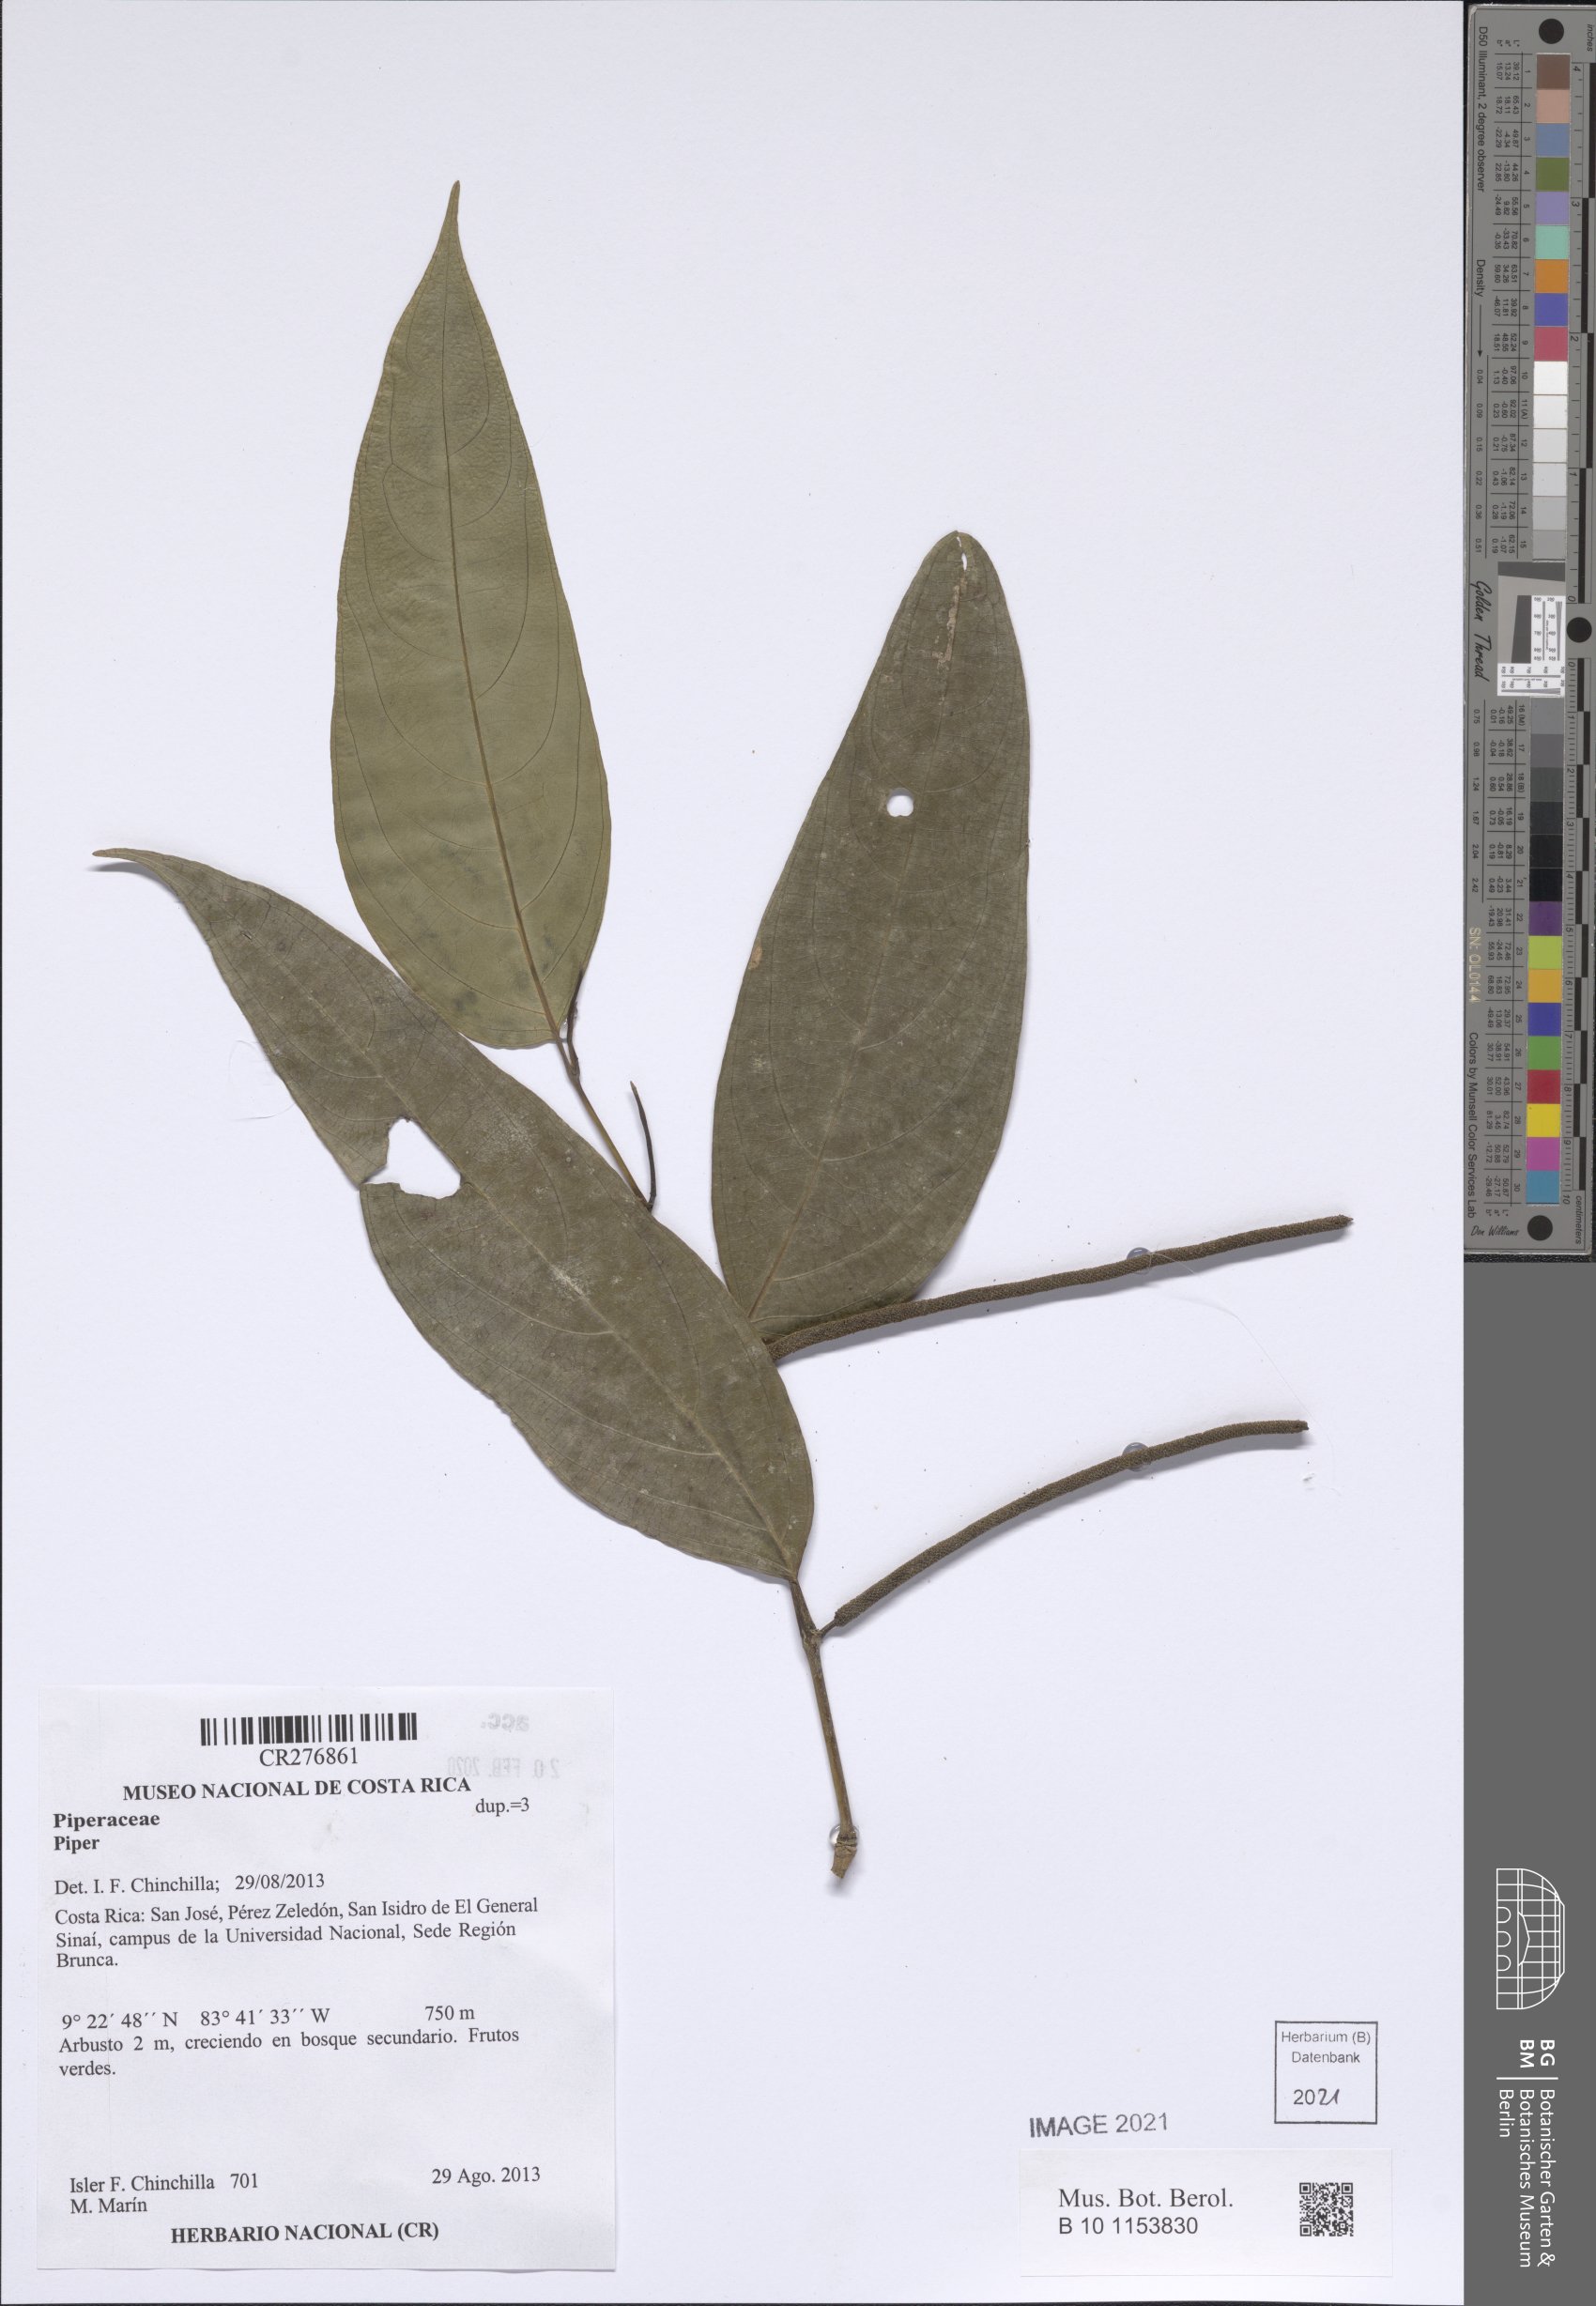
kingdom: Plantae
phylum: Tracheophyta
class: Magnoliopsida
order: Piperales
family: Piperaceae
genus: Piper
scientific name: Piper
